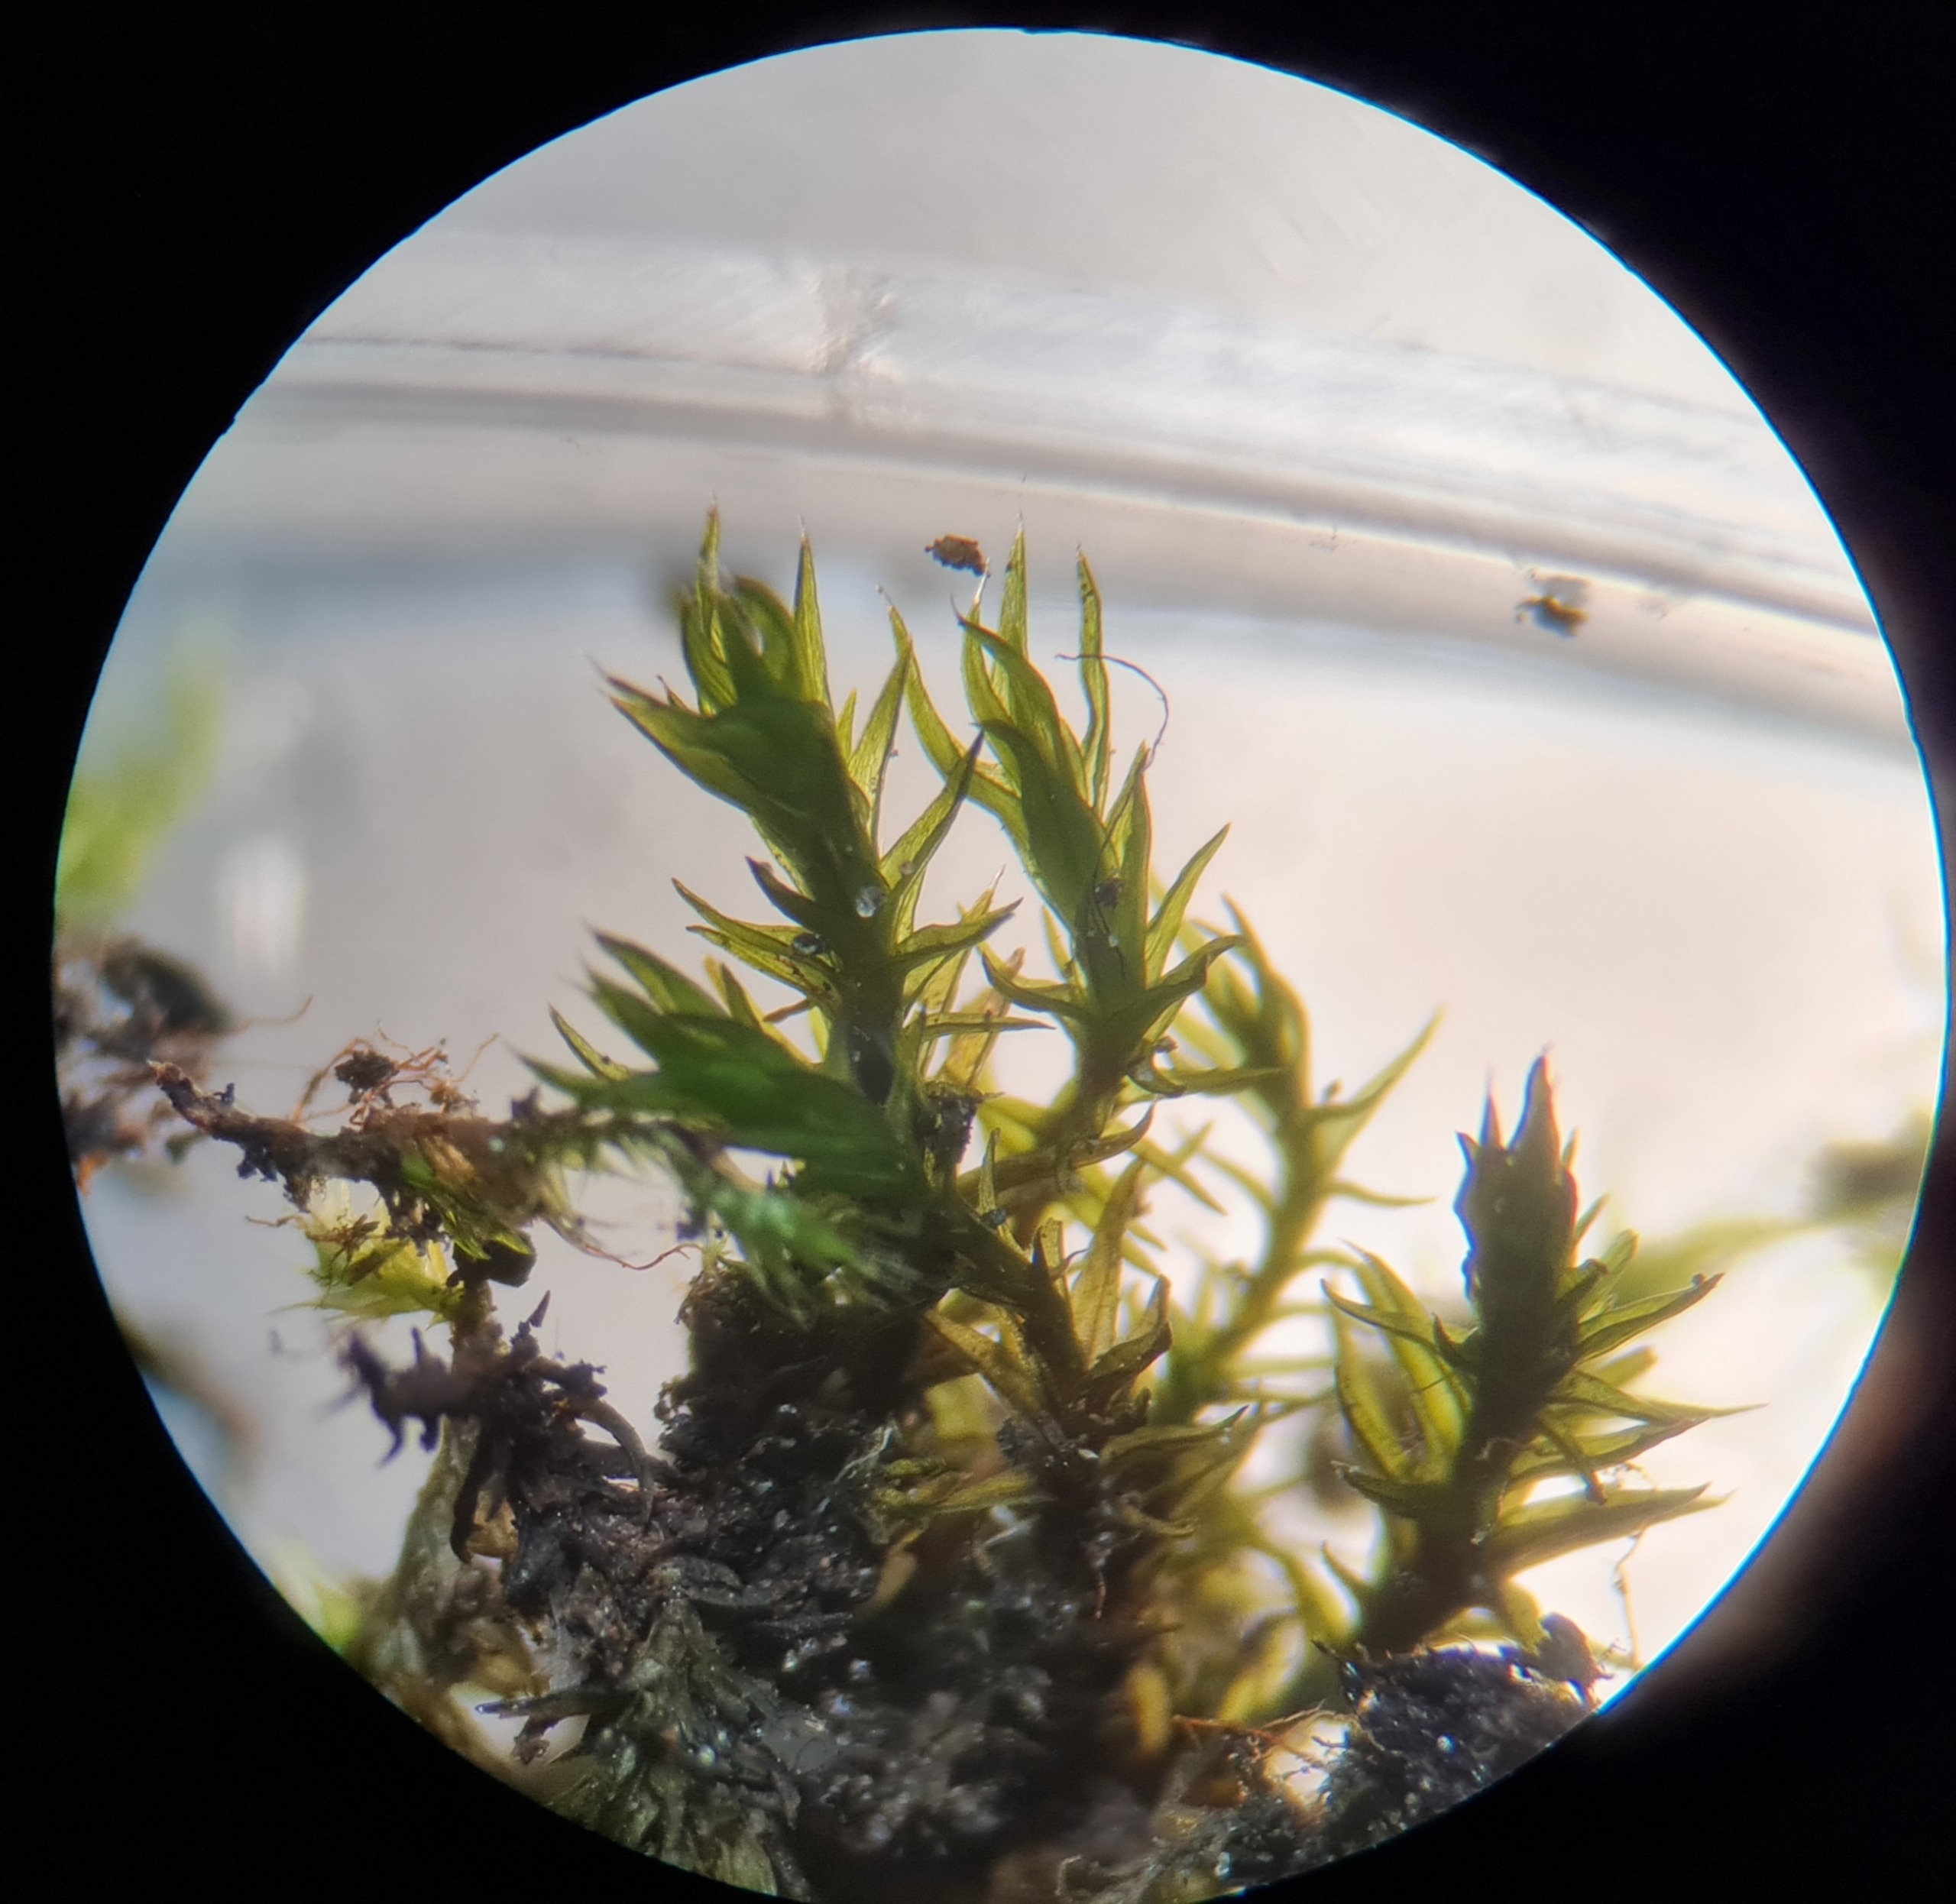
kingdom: Plantae
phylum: Bryophyta
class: Bryopsida
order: Grimmiales
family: Grimmiaceae
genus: Schistidium
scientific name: Schistidium
